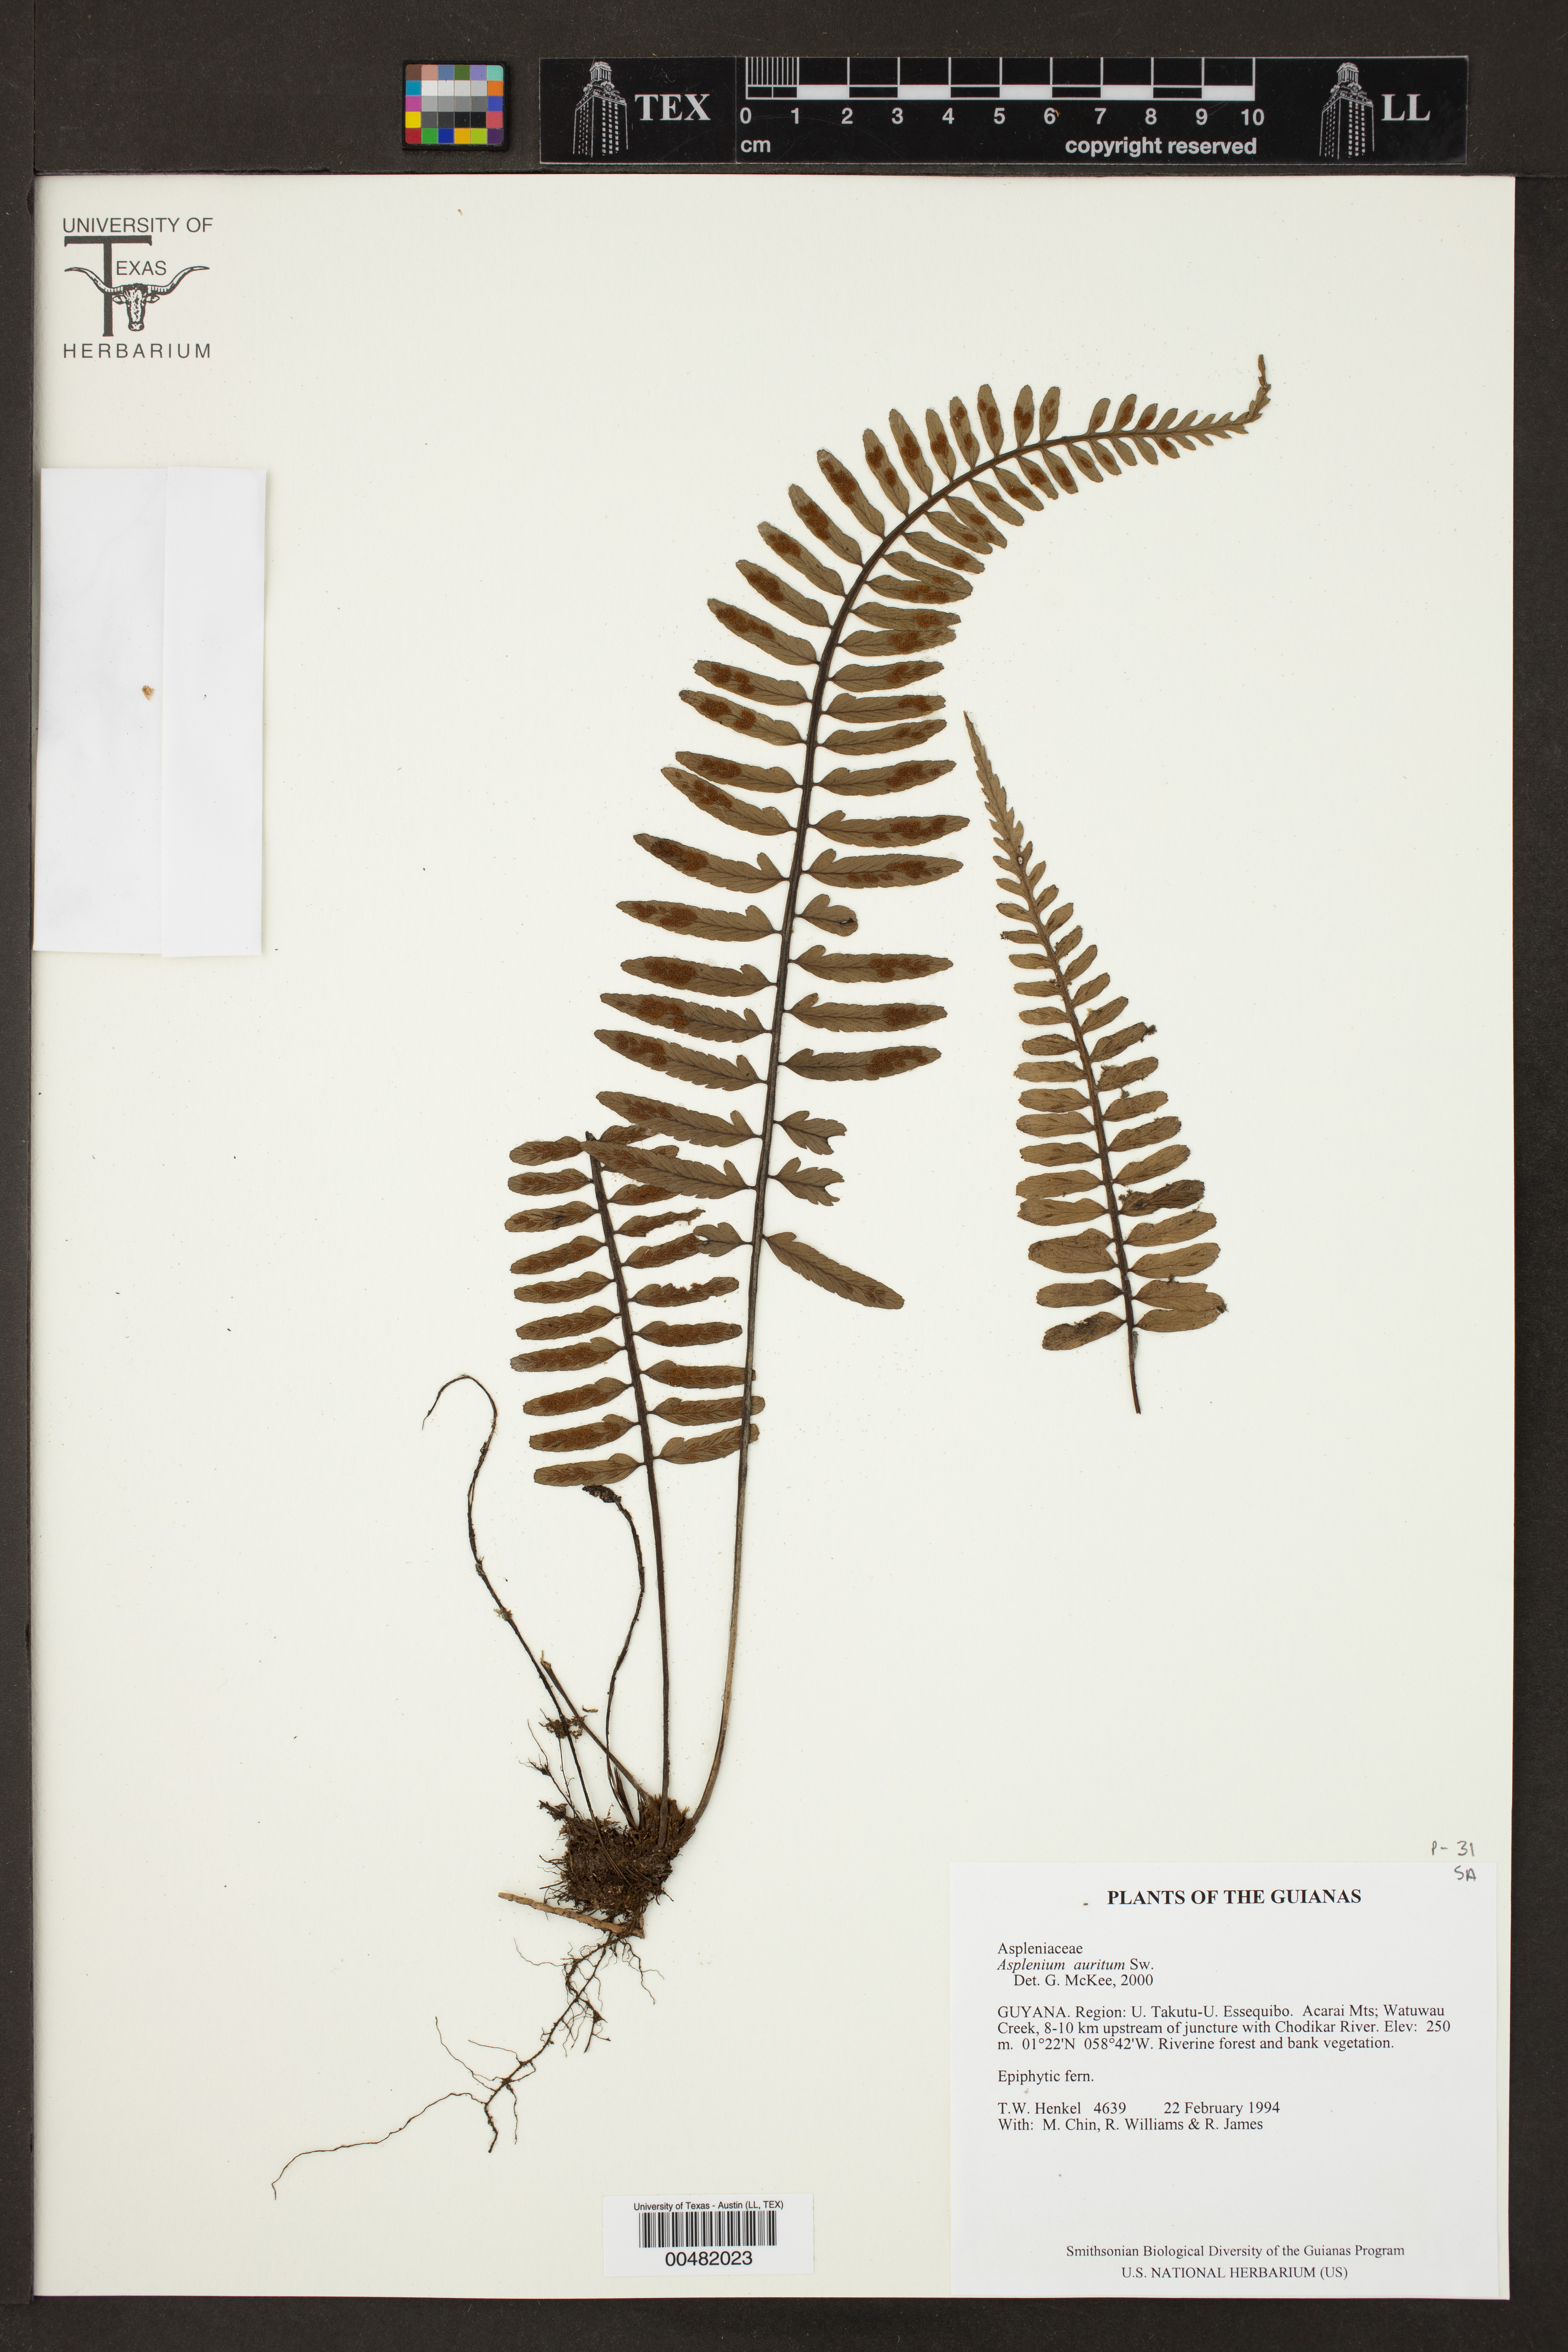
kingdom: Plantae
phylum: Tracheophyta
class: Polypodiopsida
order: Polypodiales
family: Aspleniaceae
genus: Asplenium
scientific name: Asplenium auritum
